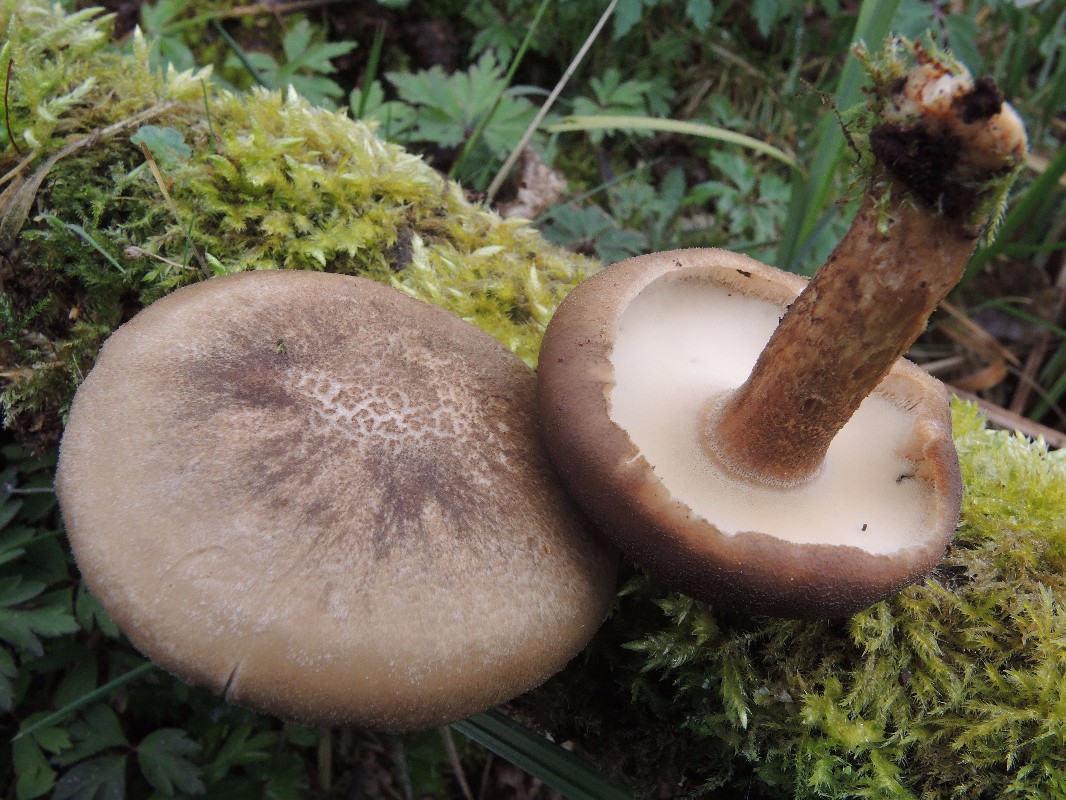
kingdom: Fungi
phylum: Basidiomycota
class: Agaricomycetes
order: Polyporales
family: Polyporaceae
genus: Lentinus
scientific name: Lentinus substrictus
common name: forårs-stilkporesvamp
